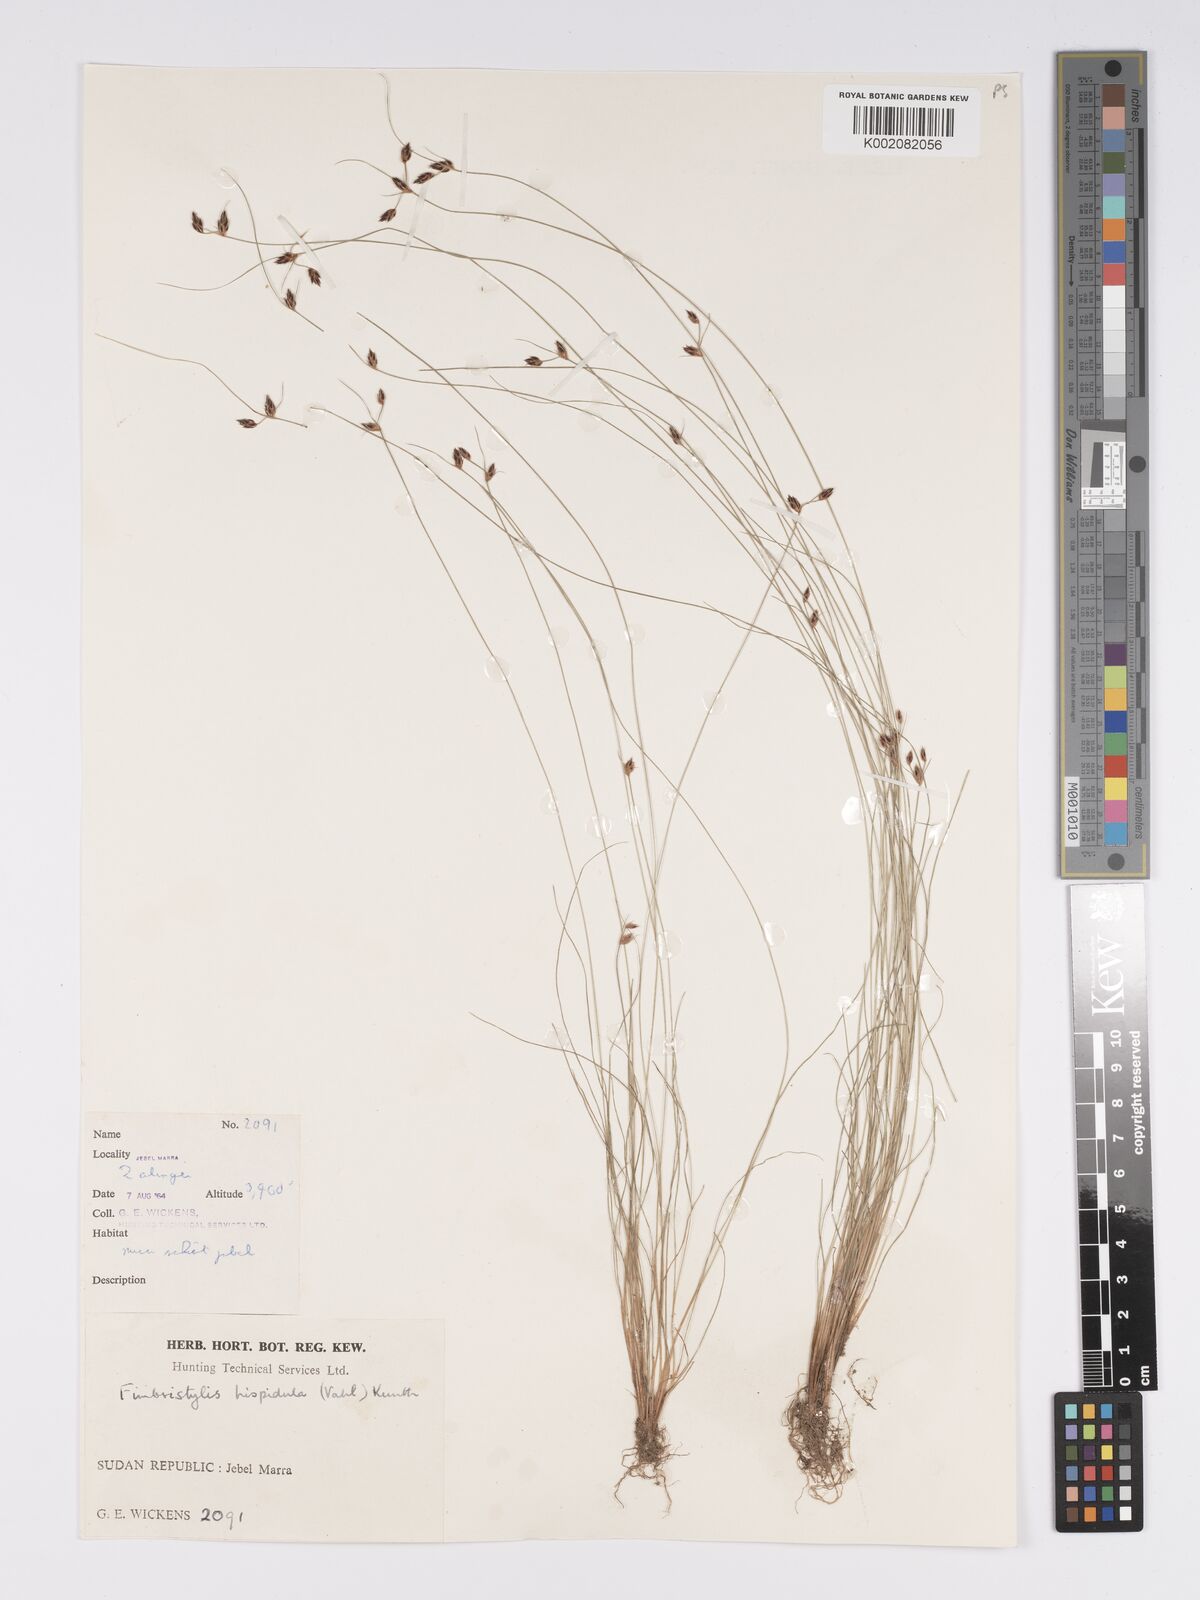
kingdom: Plantae
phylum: Tracheophyta
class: Liliopsida
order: Poales
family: Cyperaceae
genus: Bulbostylis
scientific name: Bulbostylis hispidula
